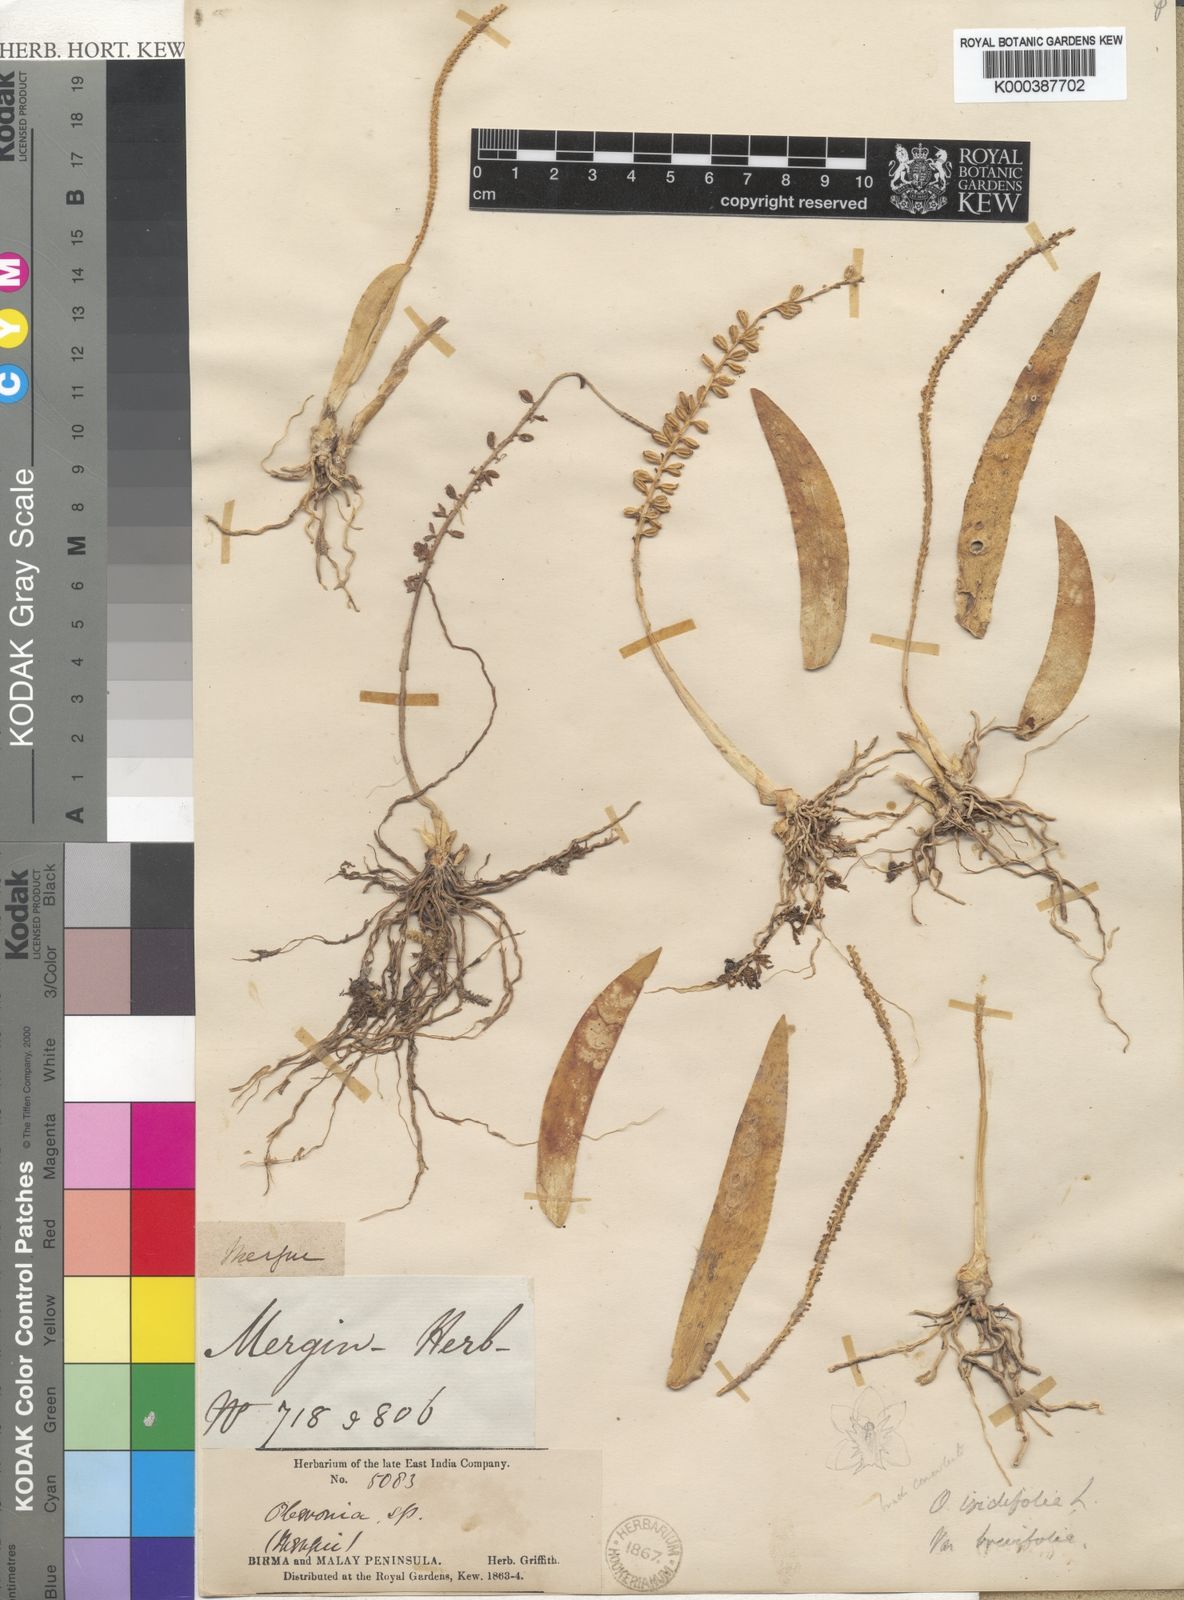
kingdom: Plantae
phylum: Tracheophyta
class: Liliopsida
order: Asparagales
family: Orchidaceae
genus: Oberonia
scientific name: Oberonia
